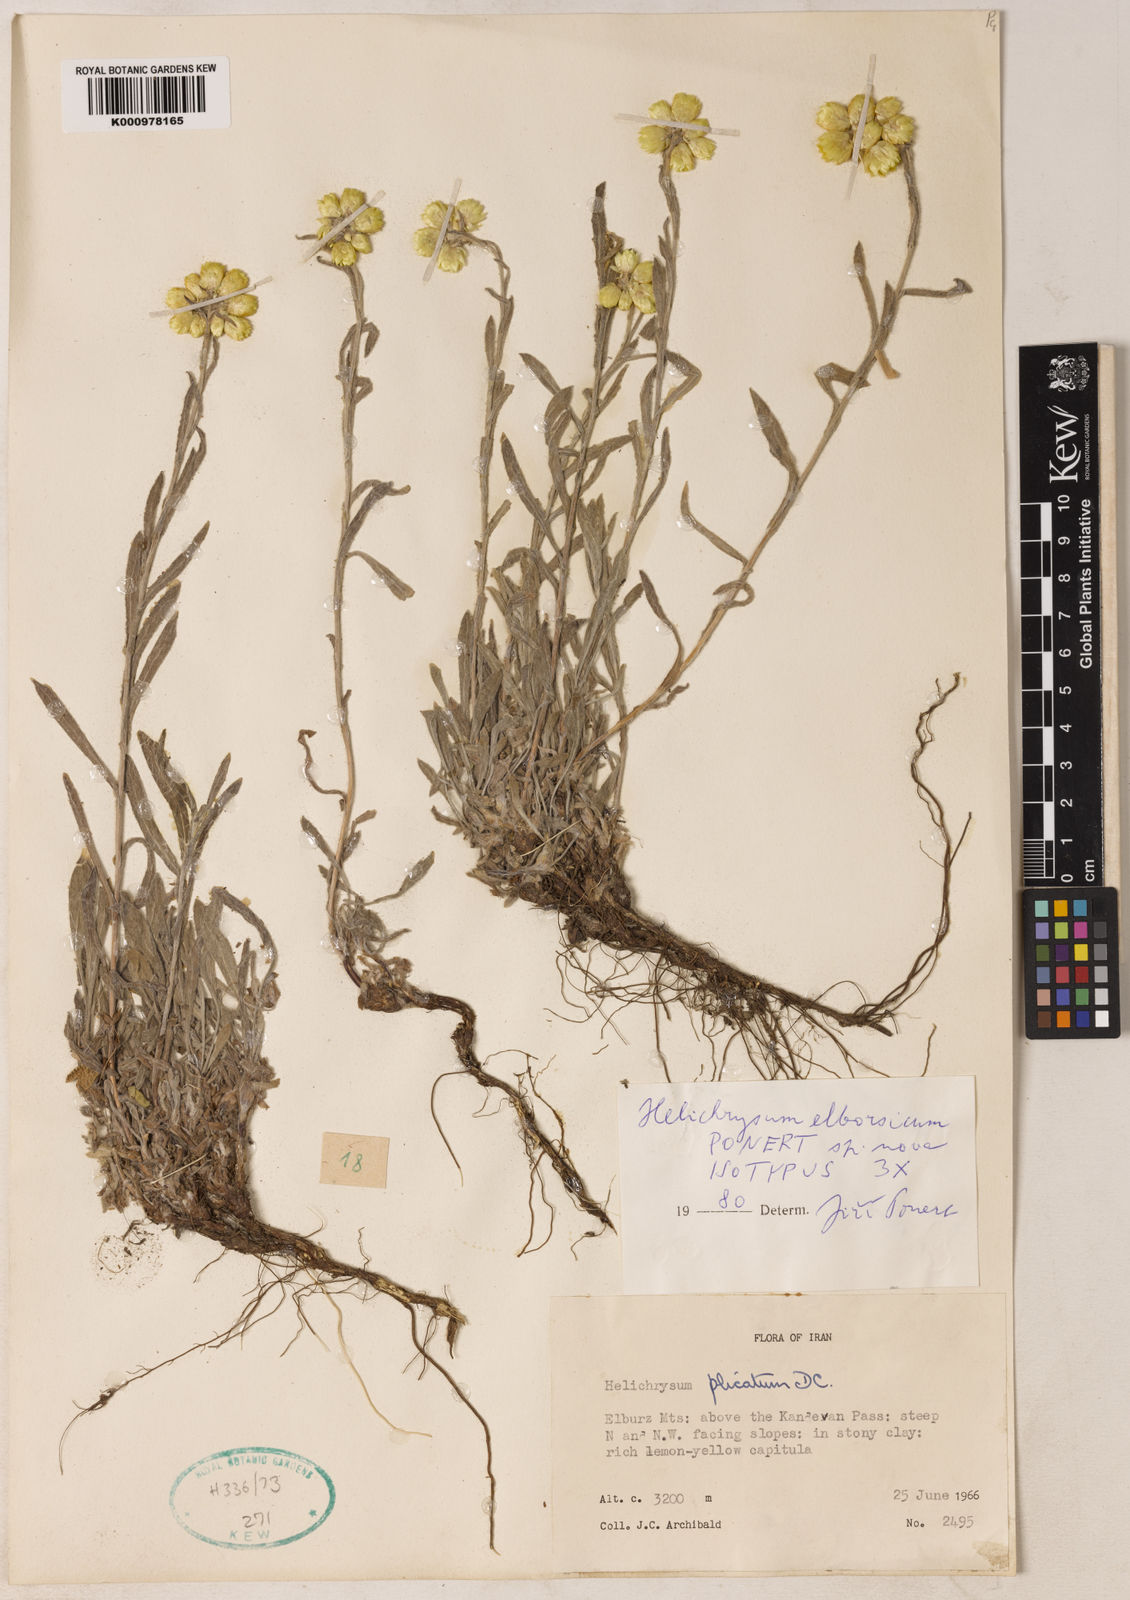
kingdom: Plantae
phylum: Tracheophyta
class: Magnoliopsida
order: Asterales
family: Asteraceae
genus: Helichrysum
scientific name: Helichrysum plicatum
